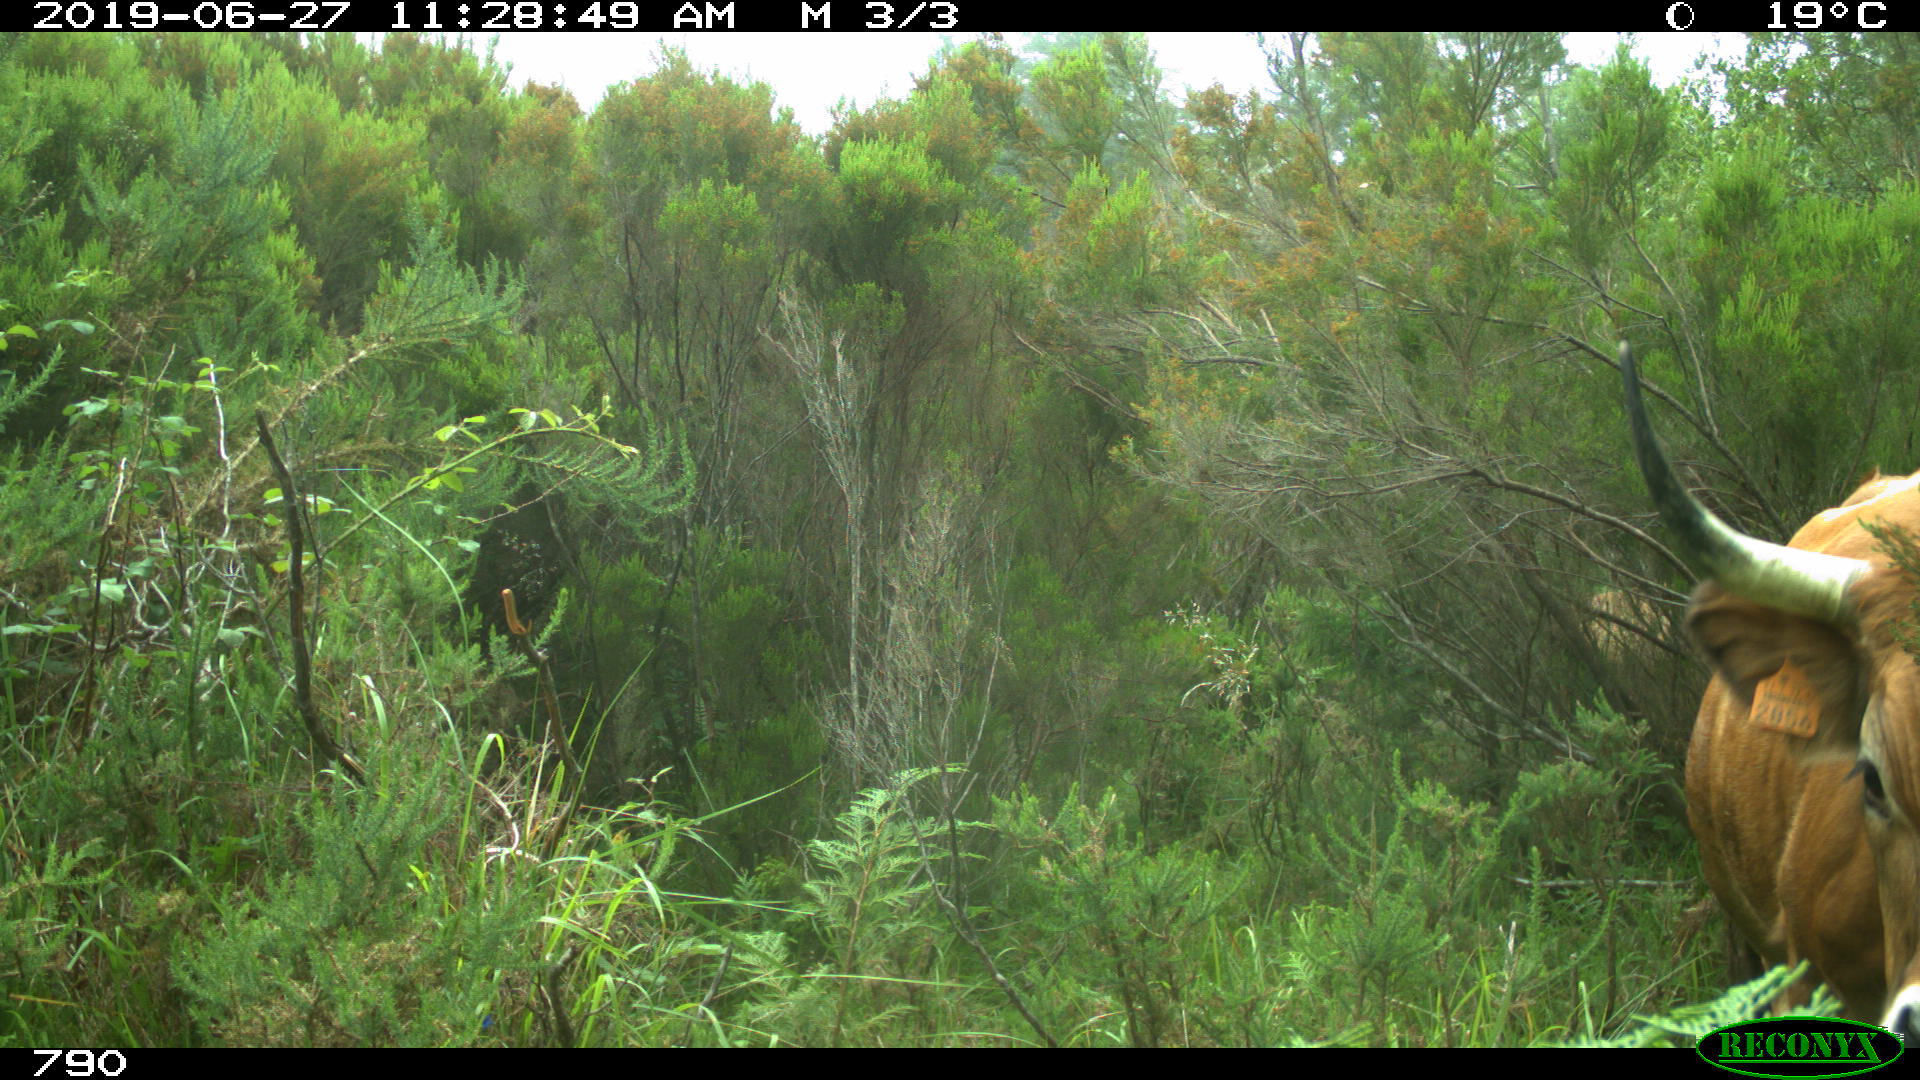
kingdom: Animalia
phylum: Chordata
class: Mammalia
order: Artiodactyla
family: Bovidae
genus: Bos
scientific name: Bos taurus
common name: Domesticated cattle
